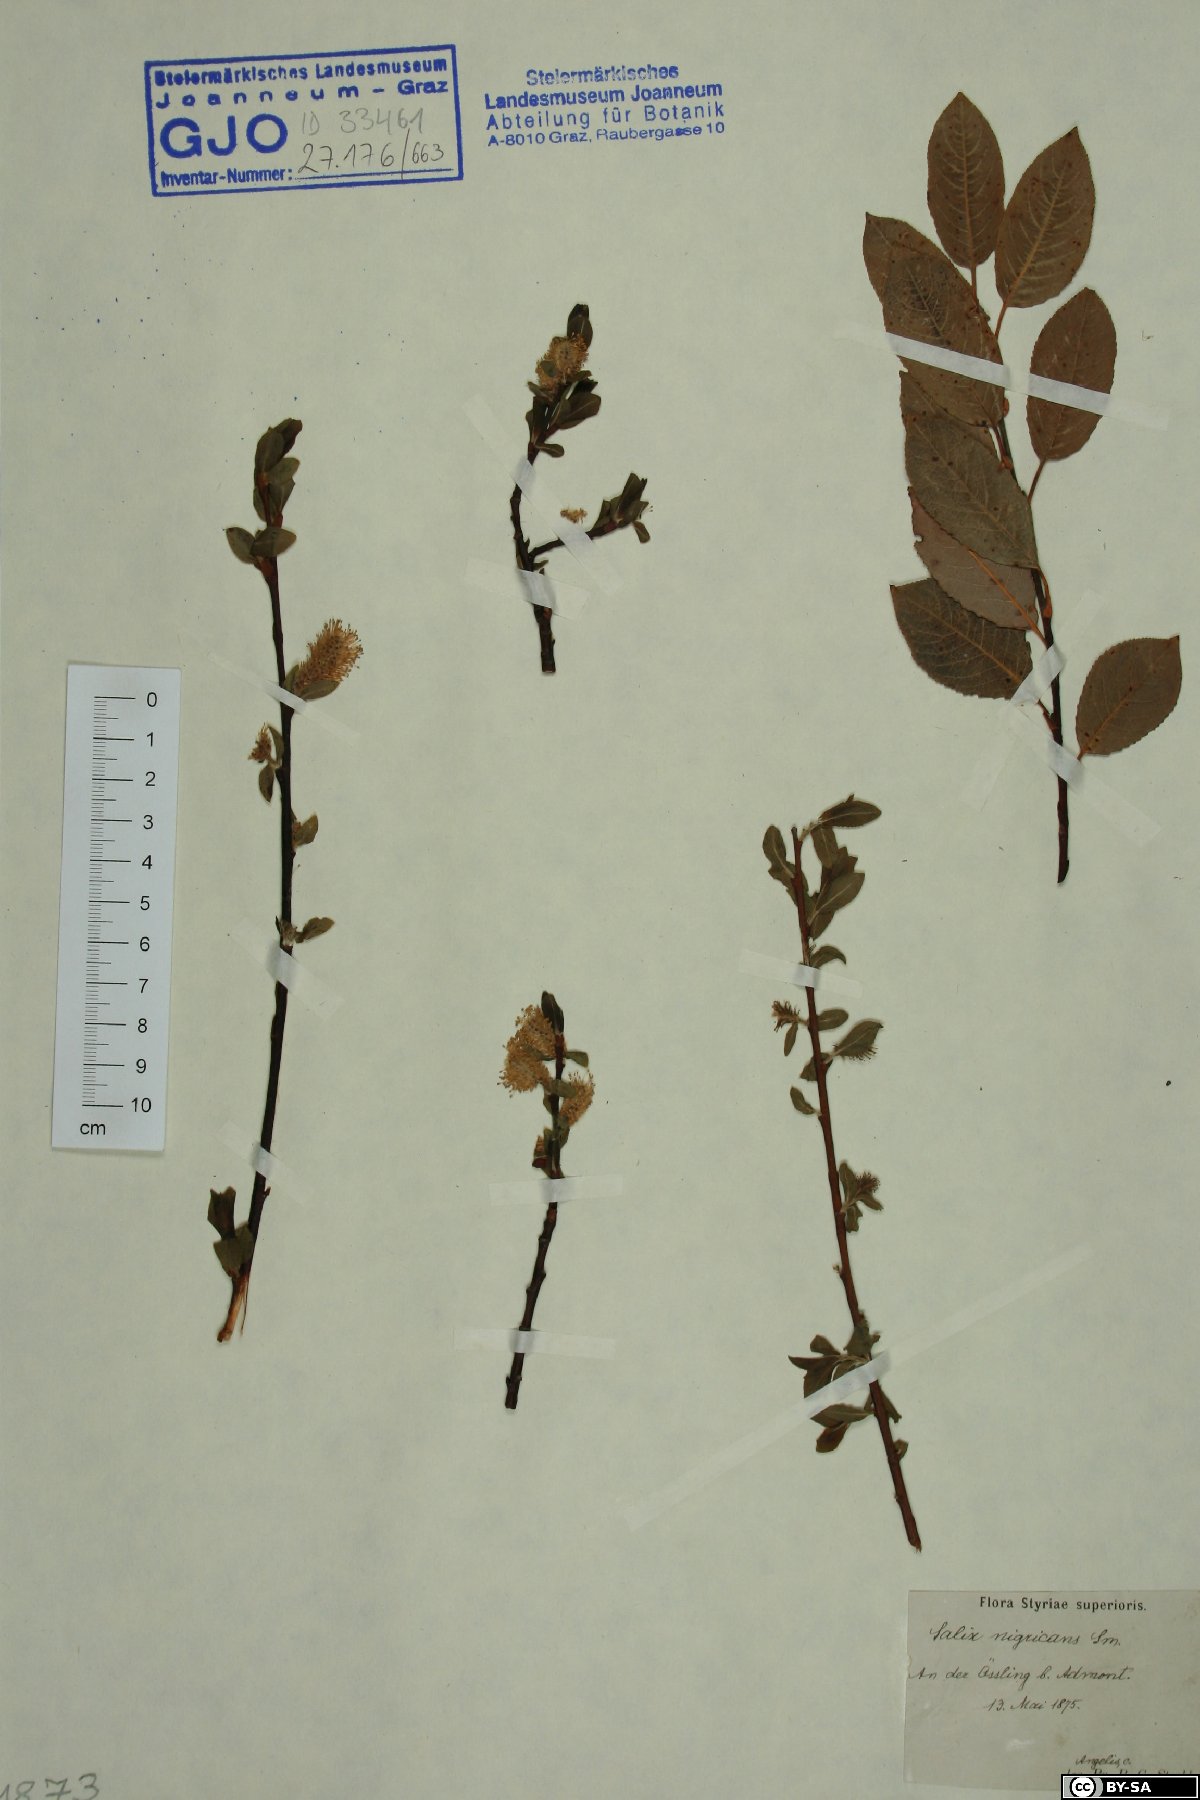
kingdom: Plantae
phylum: Tracheophyta
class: Magnoliopsida
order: Malpighiales
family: Salicaceae
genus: Salix
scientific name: Salix myrsinifolia
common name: Dark-leaved willow
